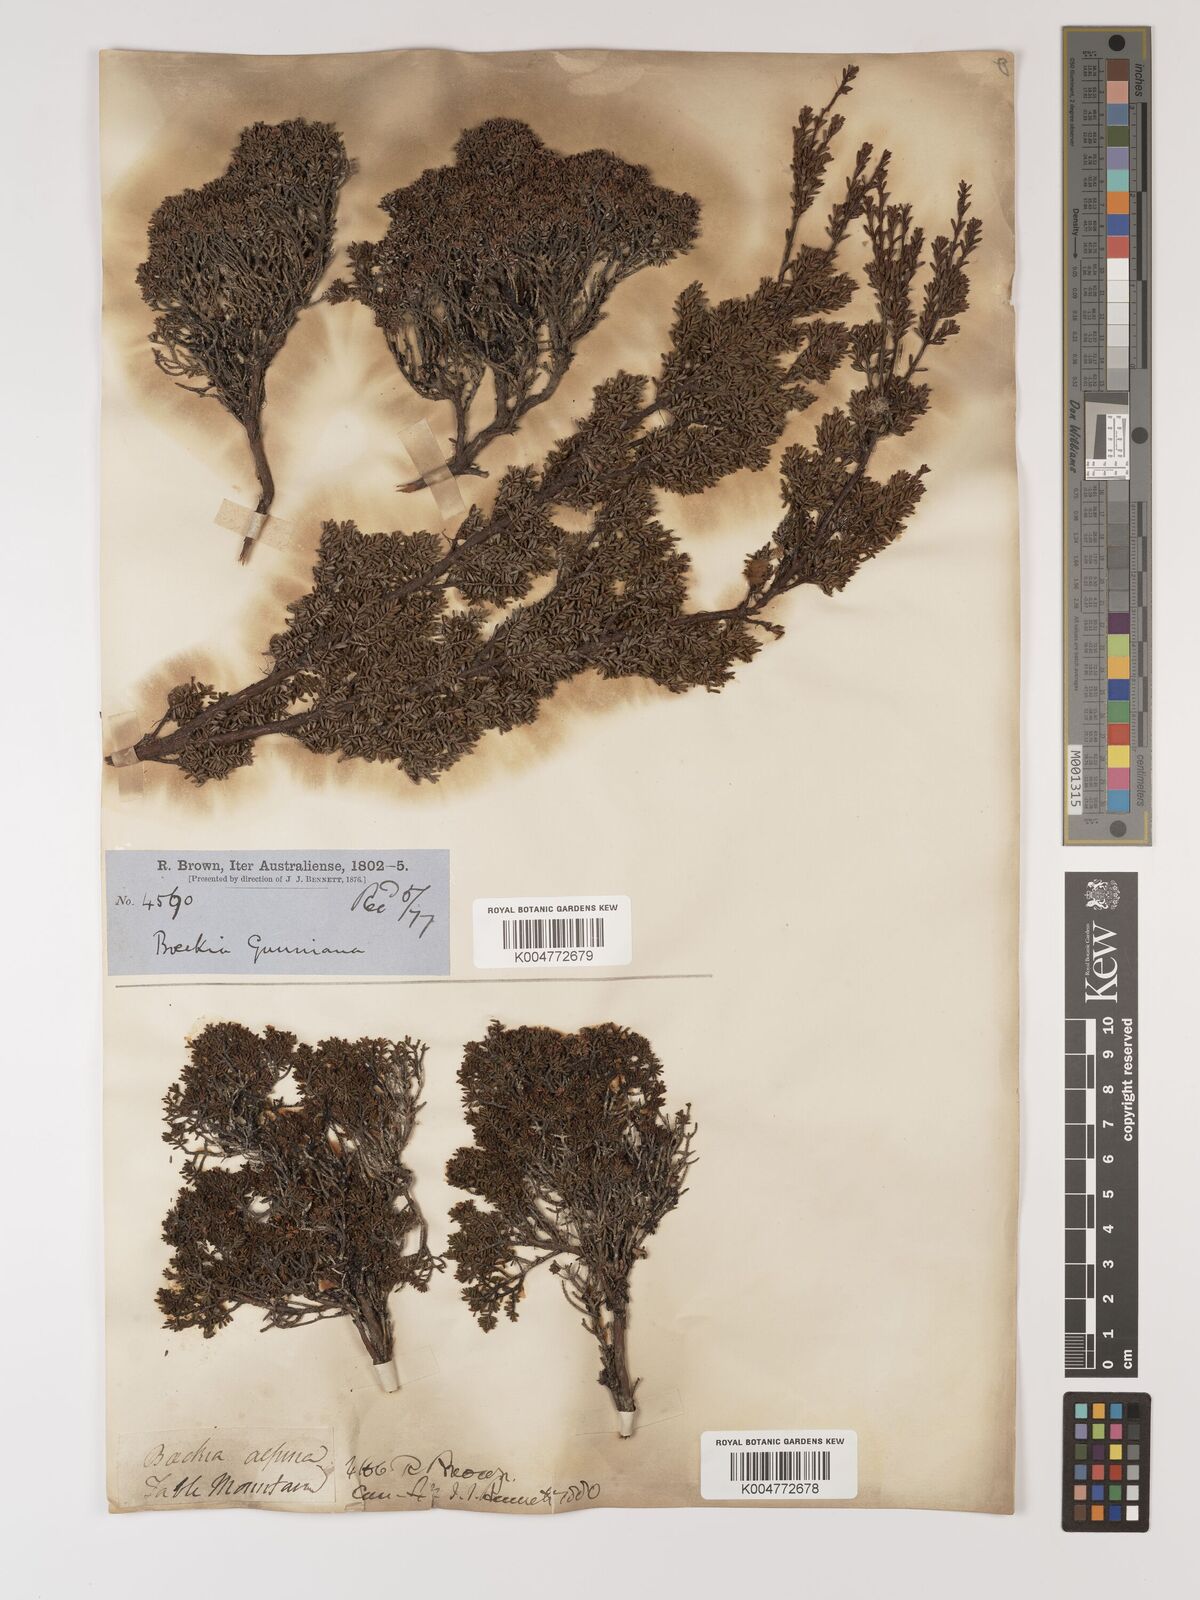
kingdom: Plantae
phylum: Tracheophyta
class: Magnoliopsida
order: Myrtales
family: Myrtaceae
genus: Baeckea
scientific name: Baeckea gunniana
